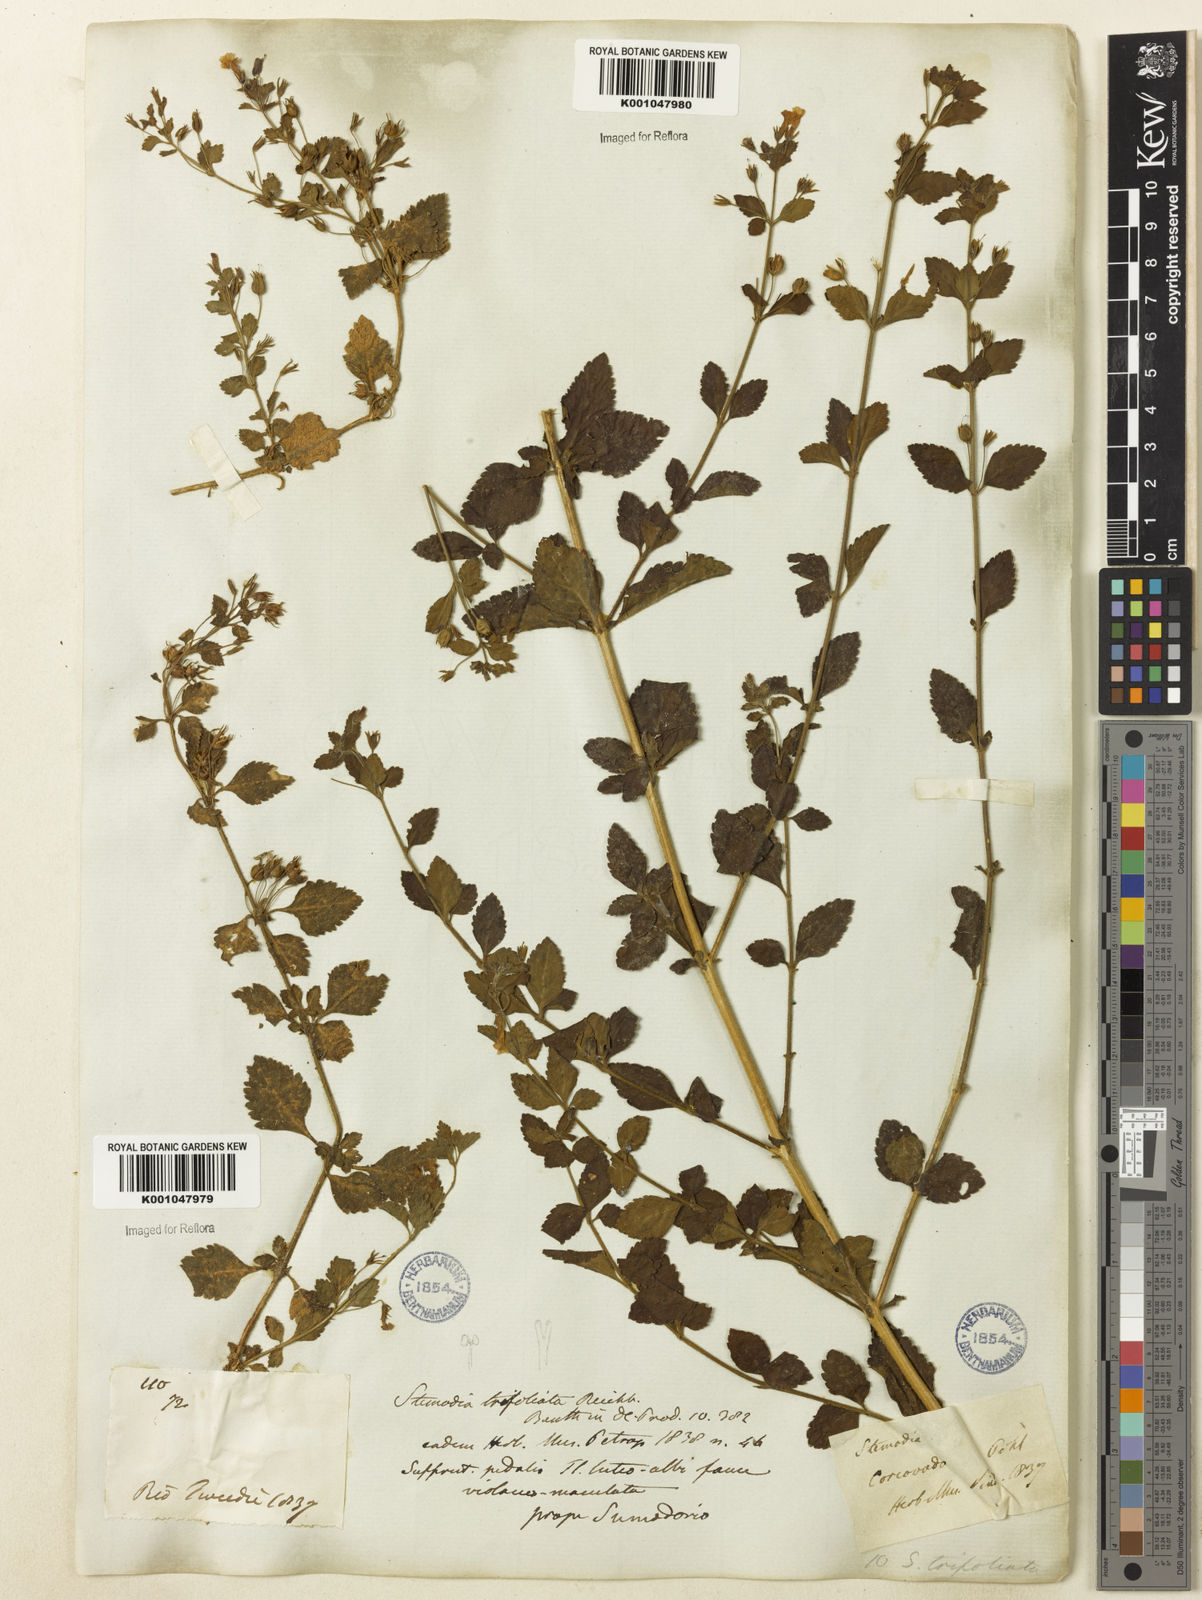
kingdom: Plantae
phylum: Tracheophyta
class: Magnoliopsida
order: Lamiales
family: Plantaginaceae
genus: Stemodia
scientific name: Stemodia trifoliata
